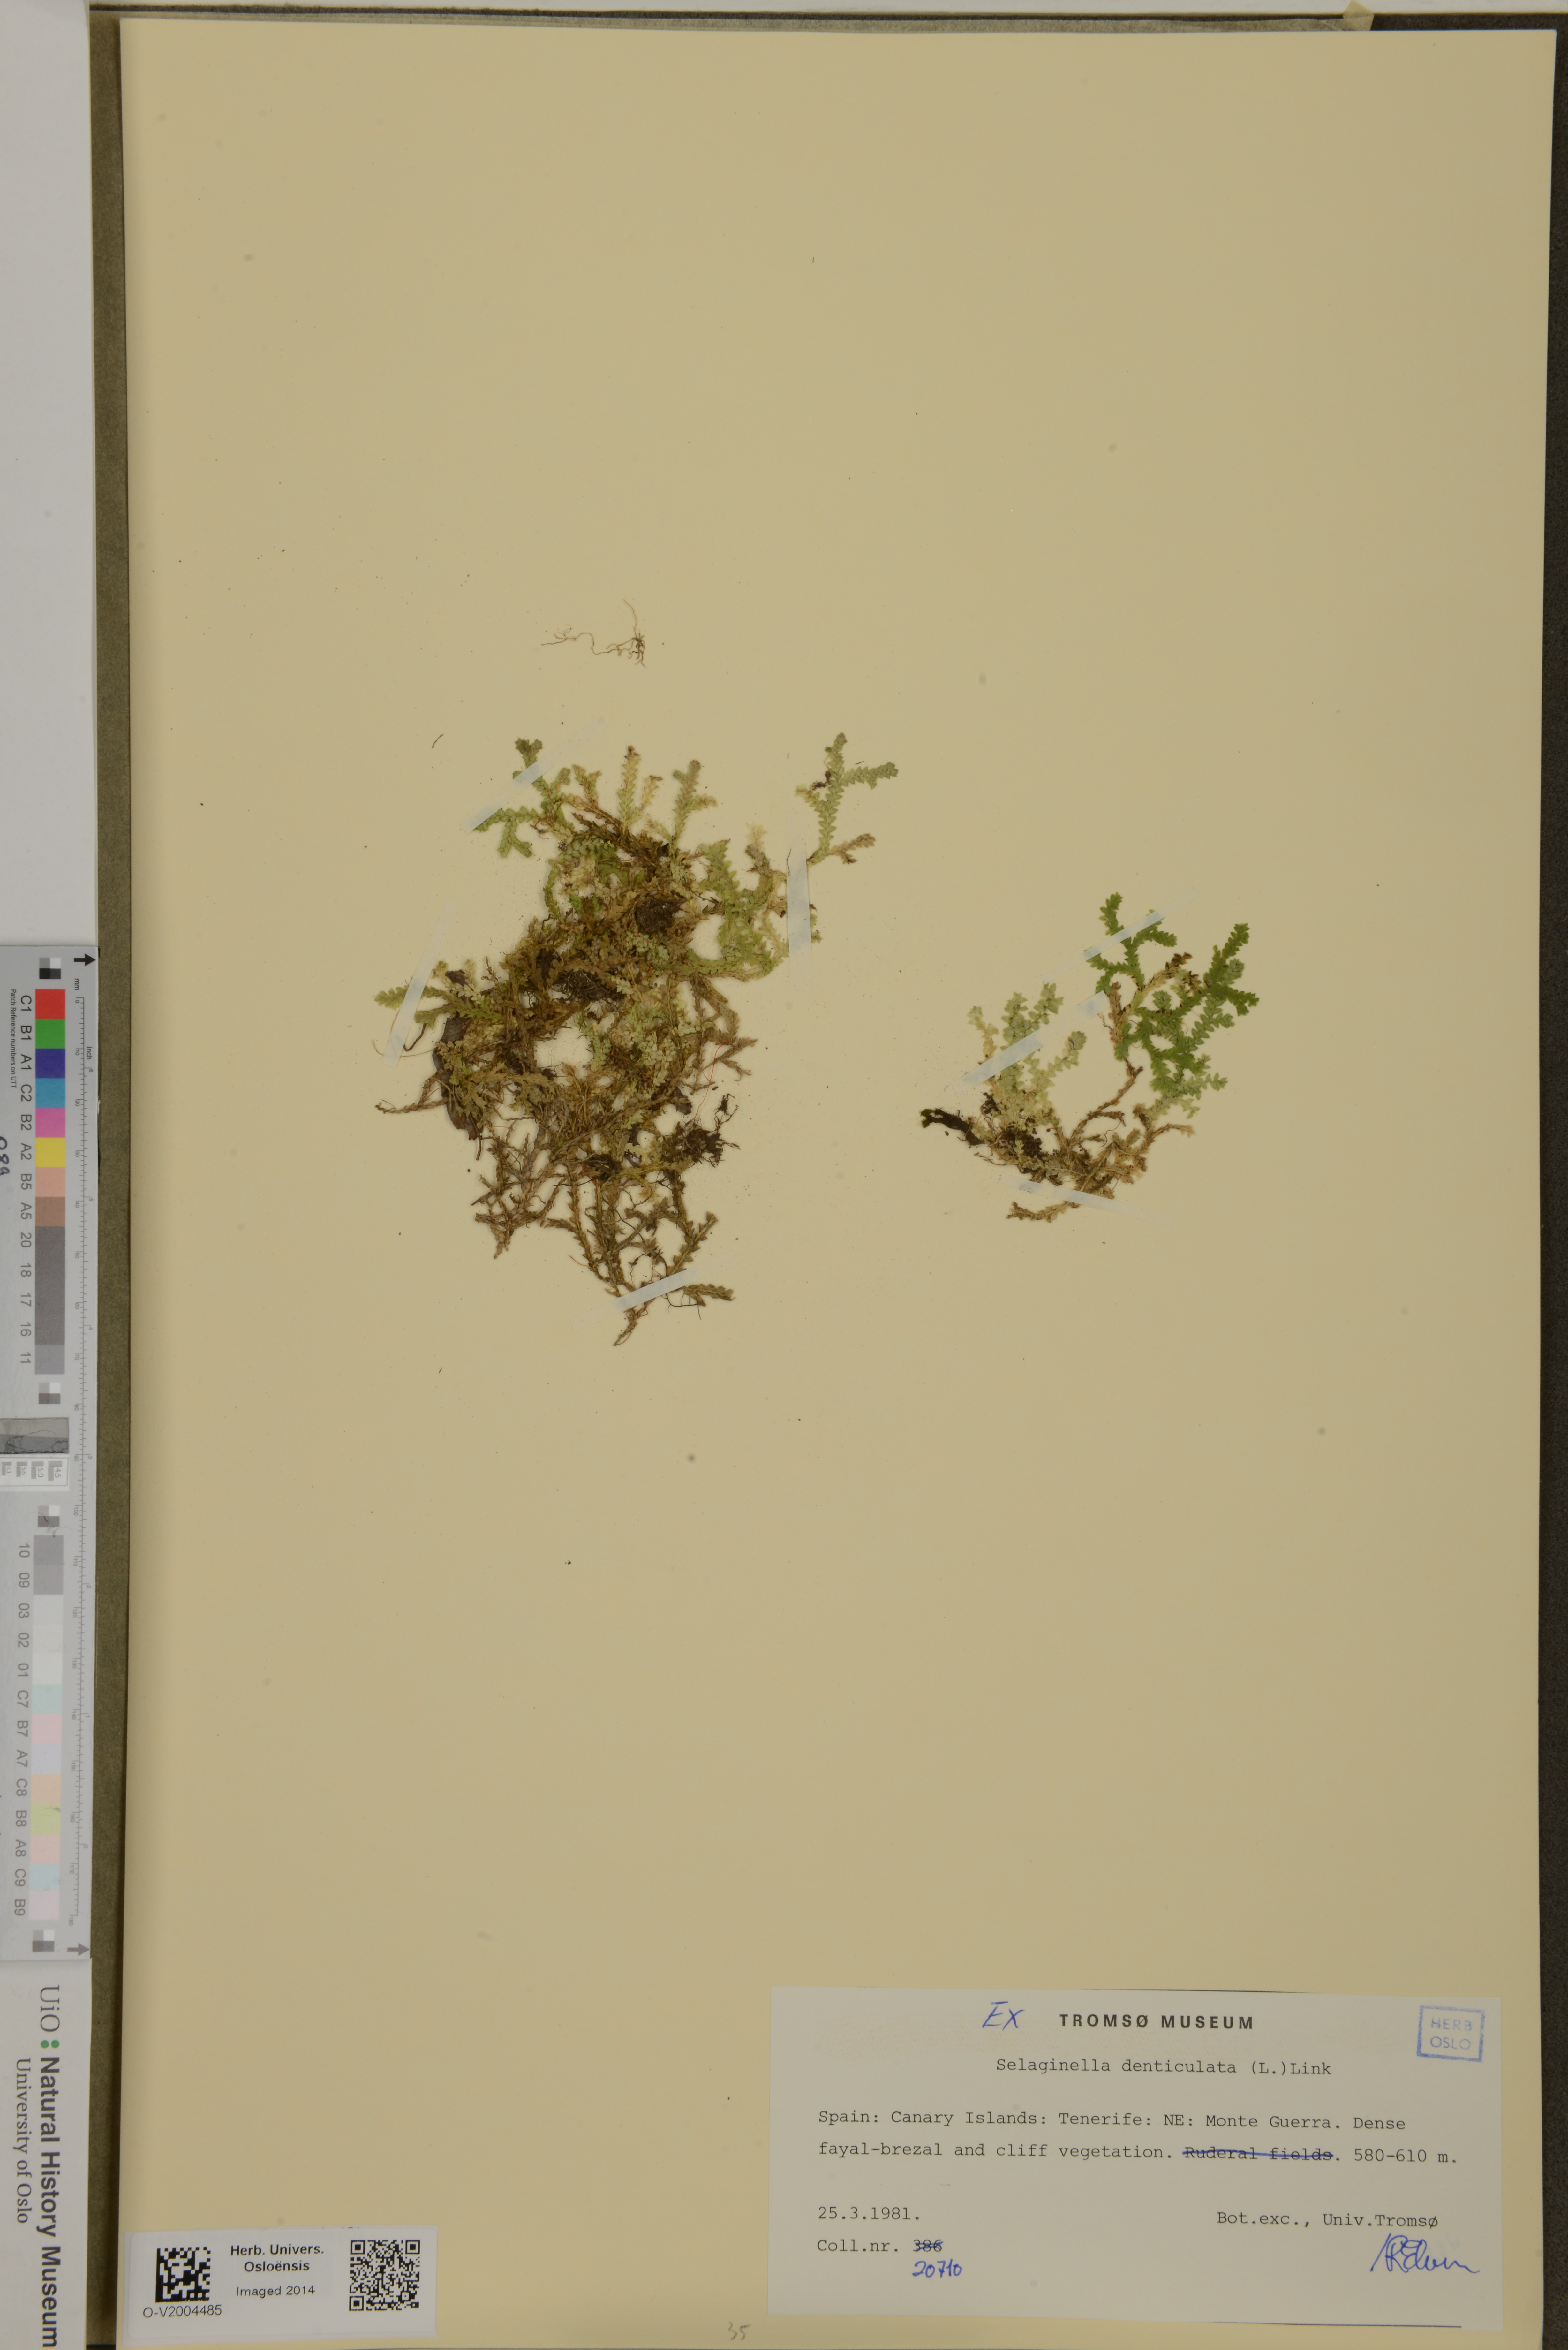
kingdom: Plantae
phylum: Tracheophyta
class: Lycopodiopsida
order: Selaginellales
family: Selaginellaceae
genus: Selaginella
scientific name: Selaginella denticulata
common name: Toothed-leaved clubmoss
